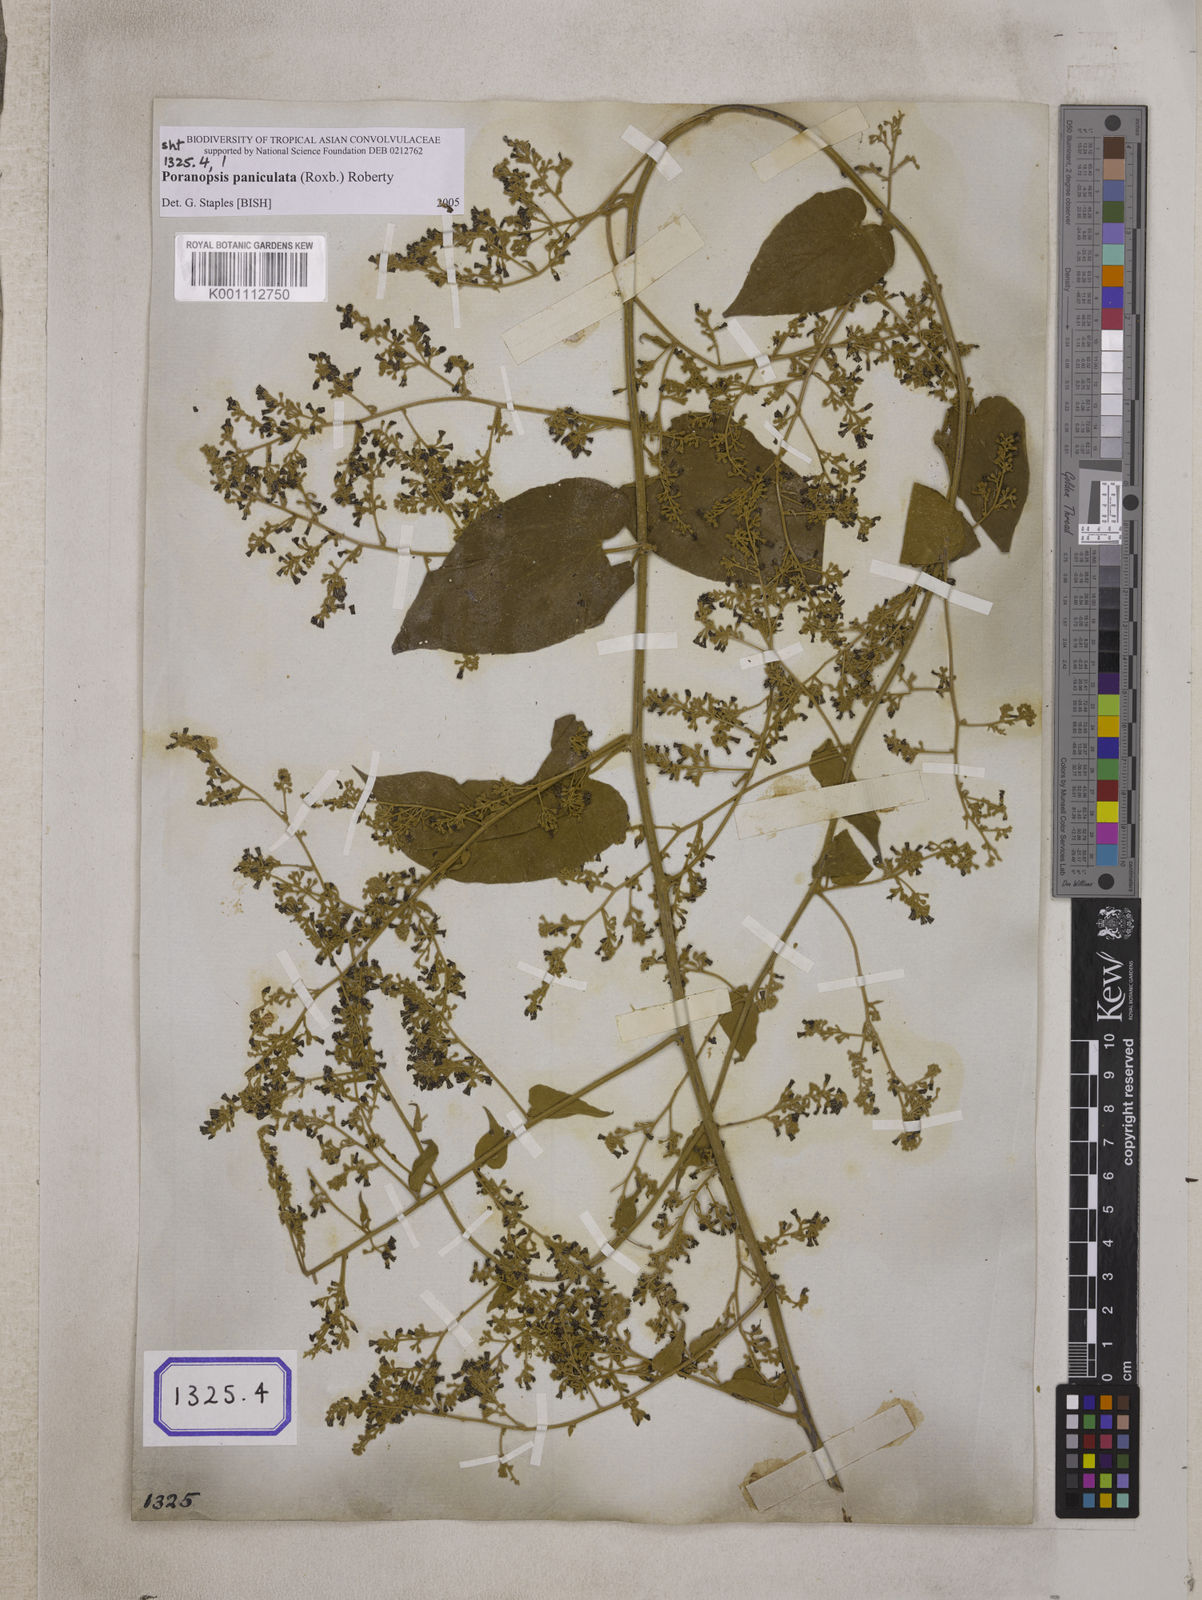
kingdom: Plantae
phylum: Tracheophyta
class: Magnoliopsida
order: Solanales
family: Convolvulaceae
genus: Poranopsis
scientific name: Poranopsis paniculata
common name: Bridal bouquet
